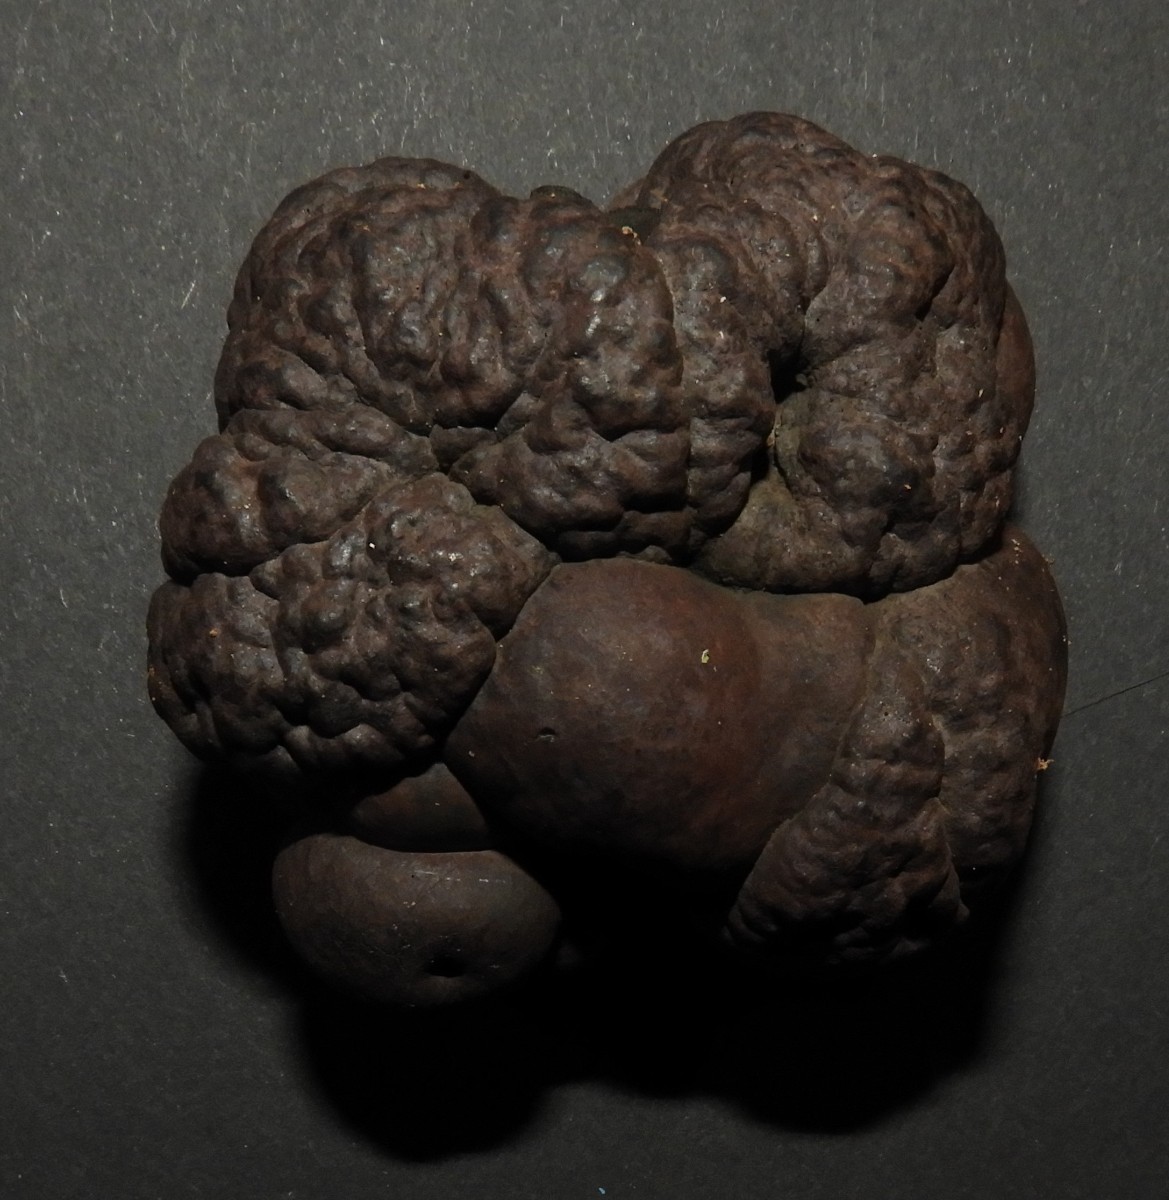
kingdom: Fungi
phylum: Ascomycota
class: Sordariomycetes
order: Xylariales
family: Hypoxylaceae
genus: Daldinia
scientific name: Daldinia
